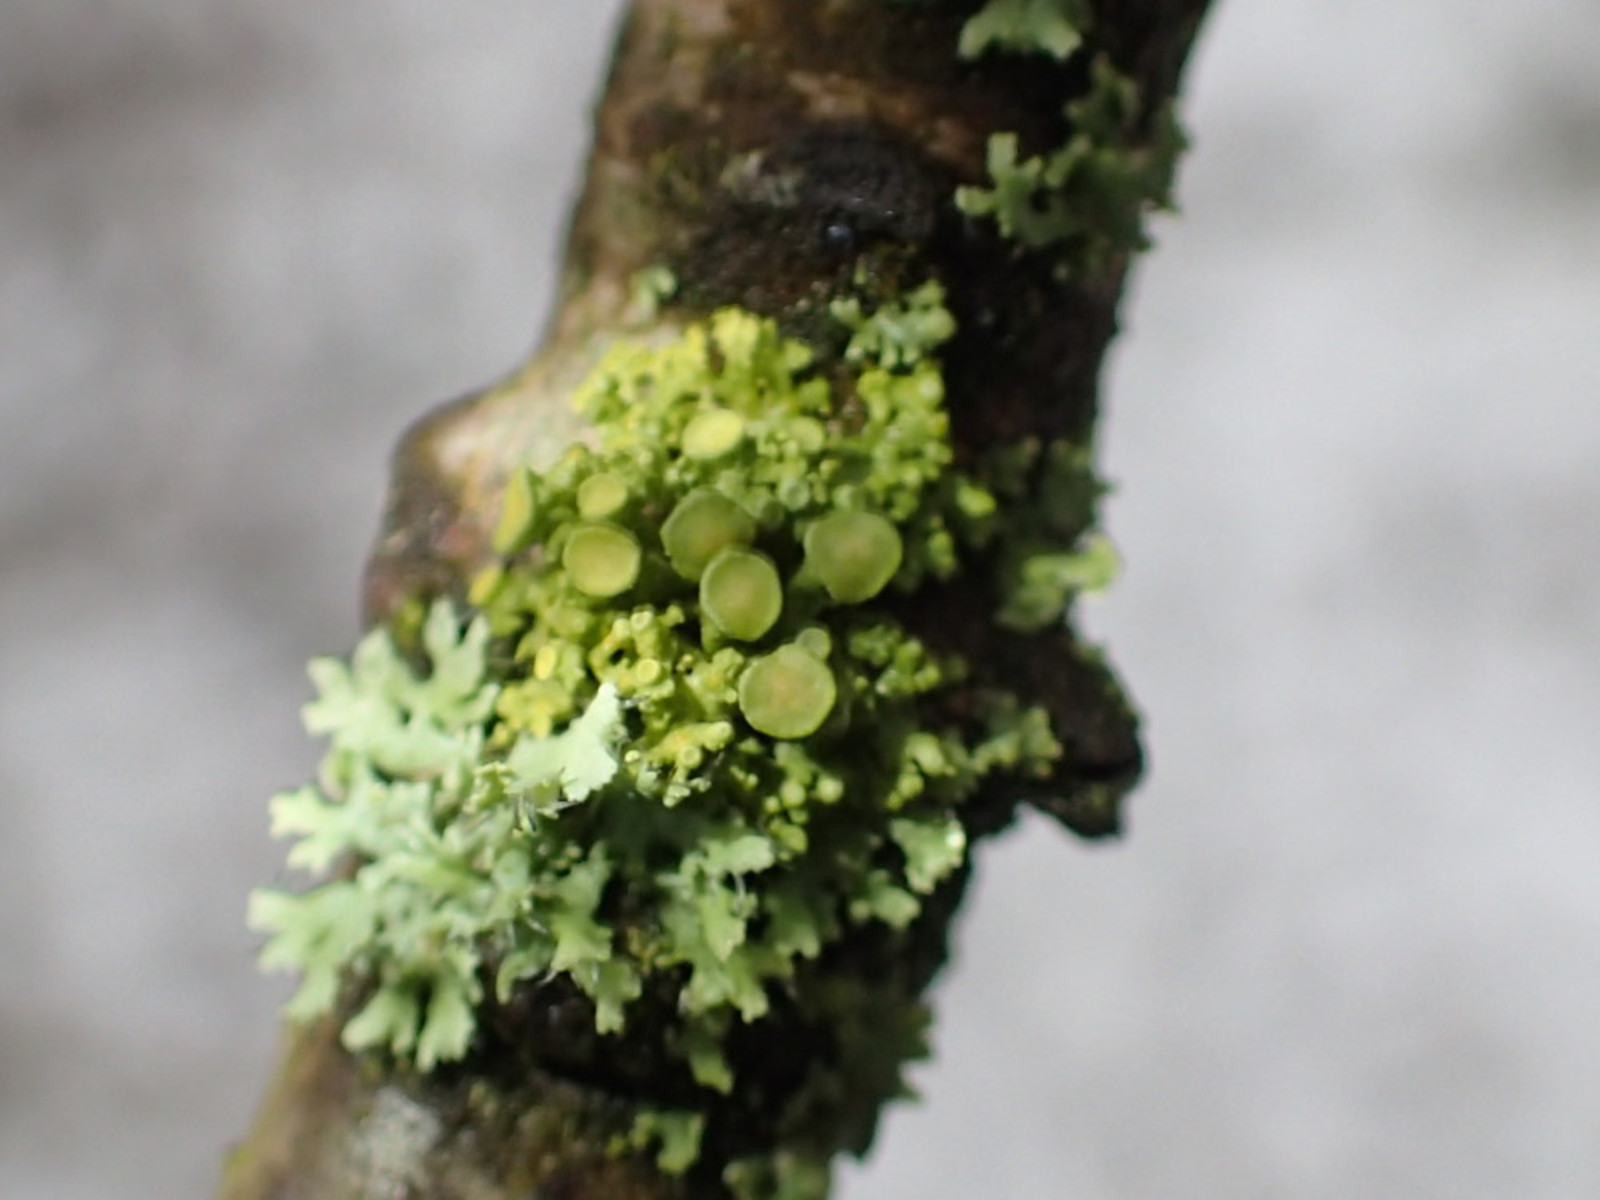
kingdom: Fungi
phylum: Ascomycota
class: Lecanoromycetes
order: Teloschistales
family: Teloschistaceae
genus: Polycauliona
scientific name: Polycauliona polycarpa
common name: mangefrugtet orangelav
